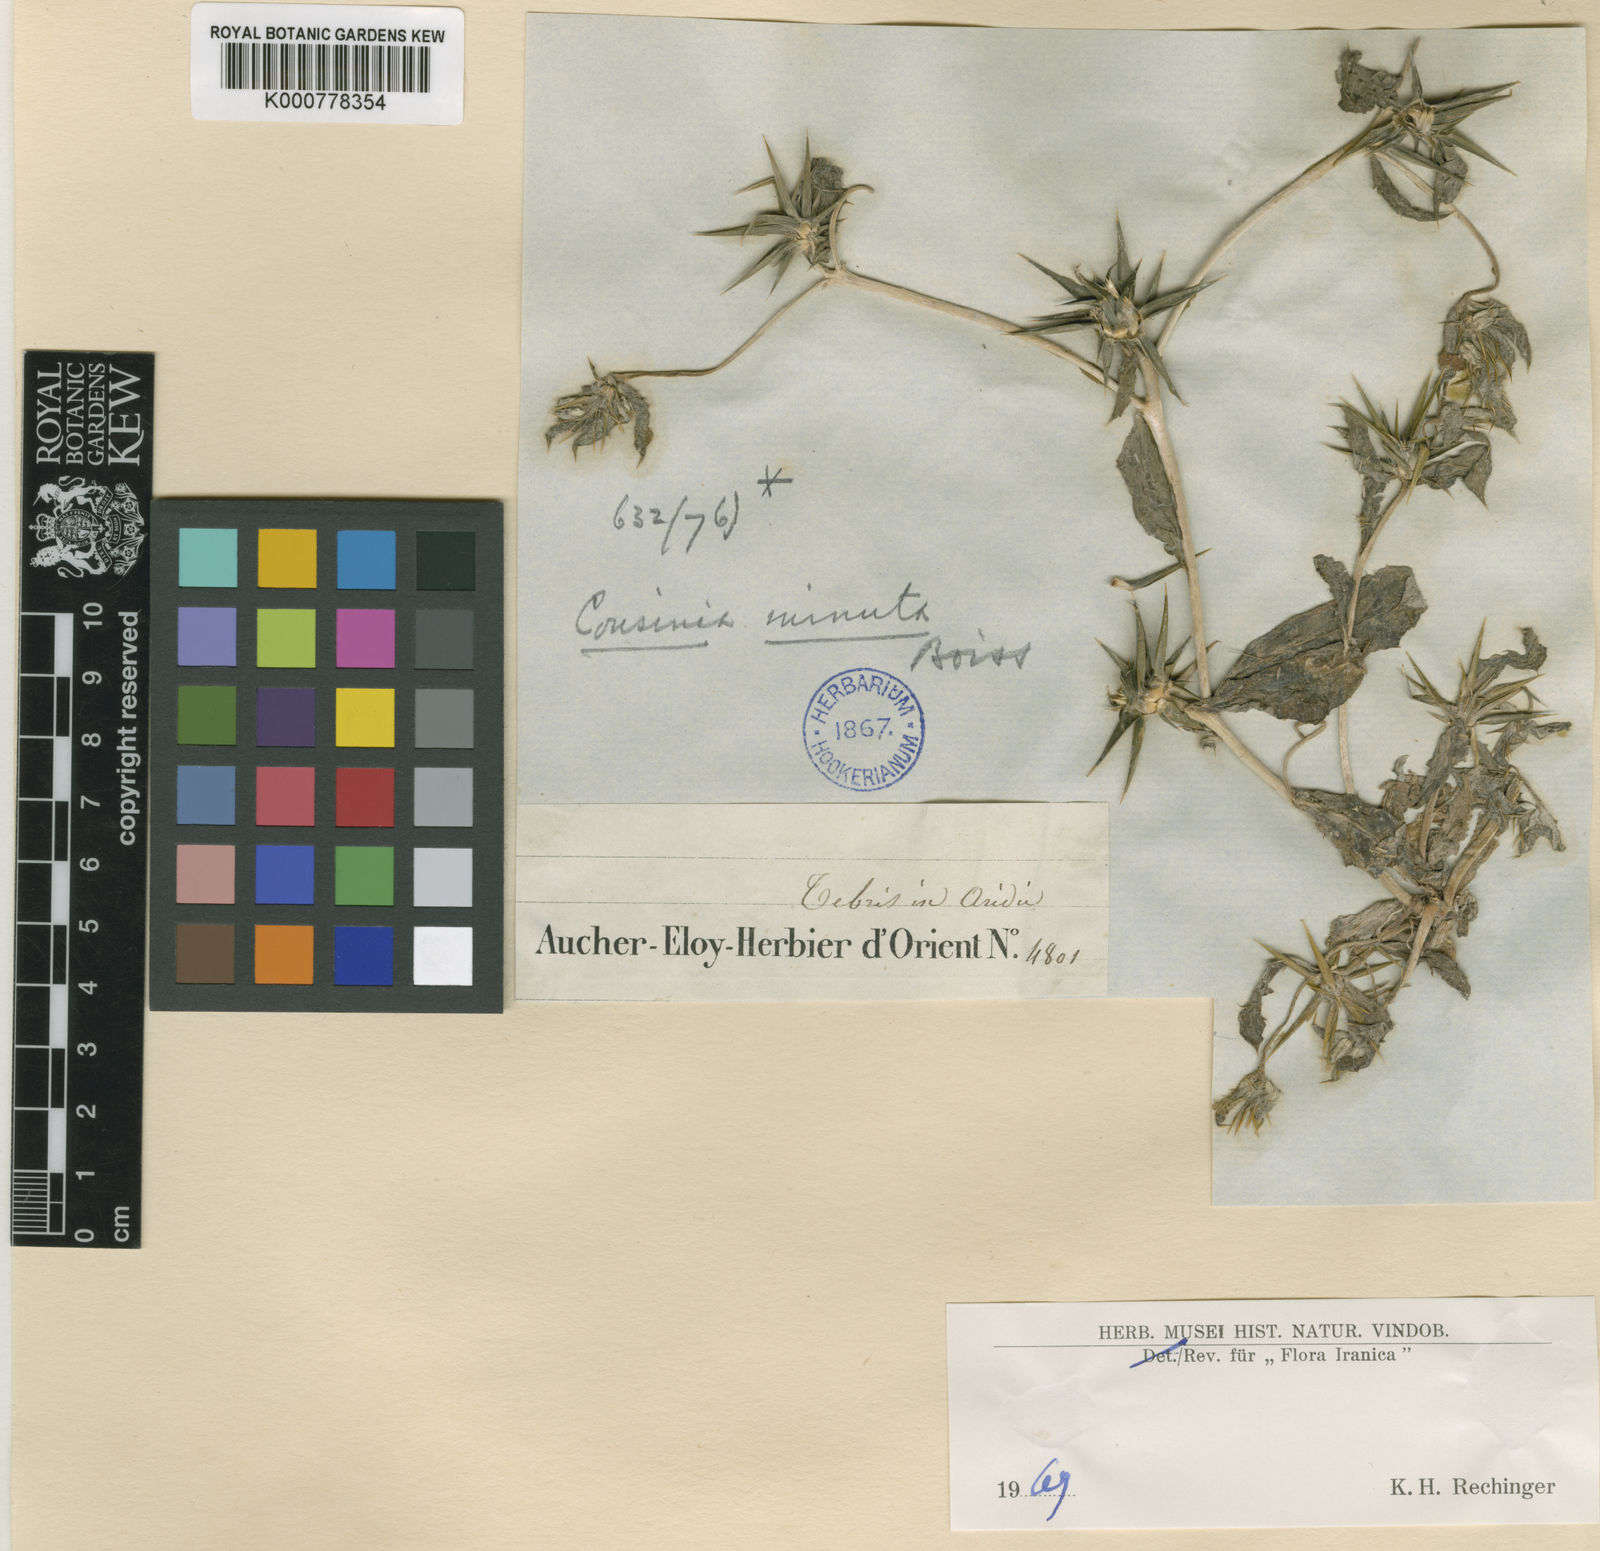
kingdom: Plantae
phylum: Tracheophyta
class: Magnoliopsida
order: Asterales
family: Asteraceae
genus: Cousinia
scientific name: Cousinia prolifera
